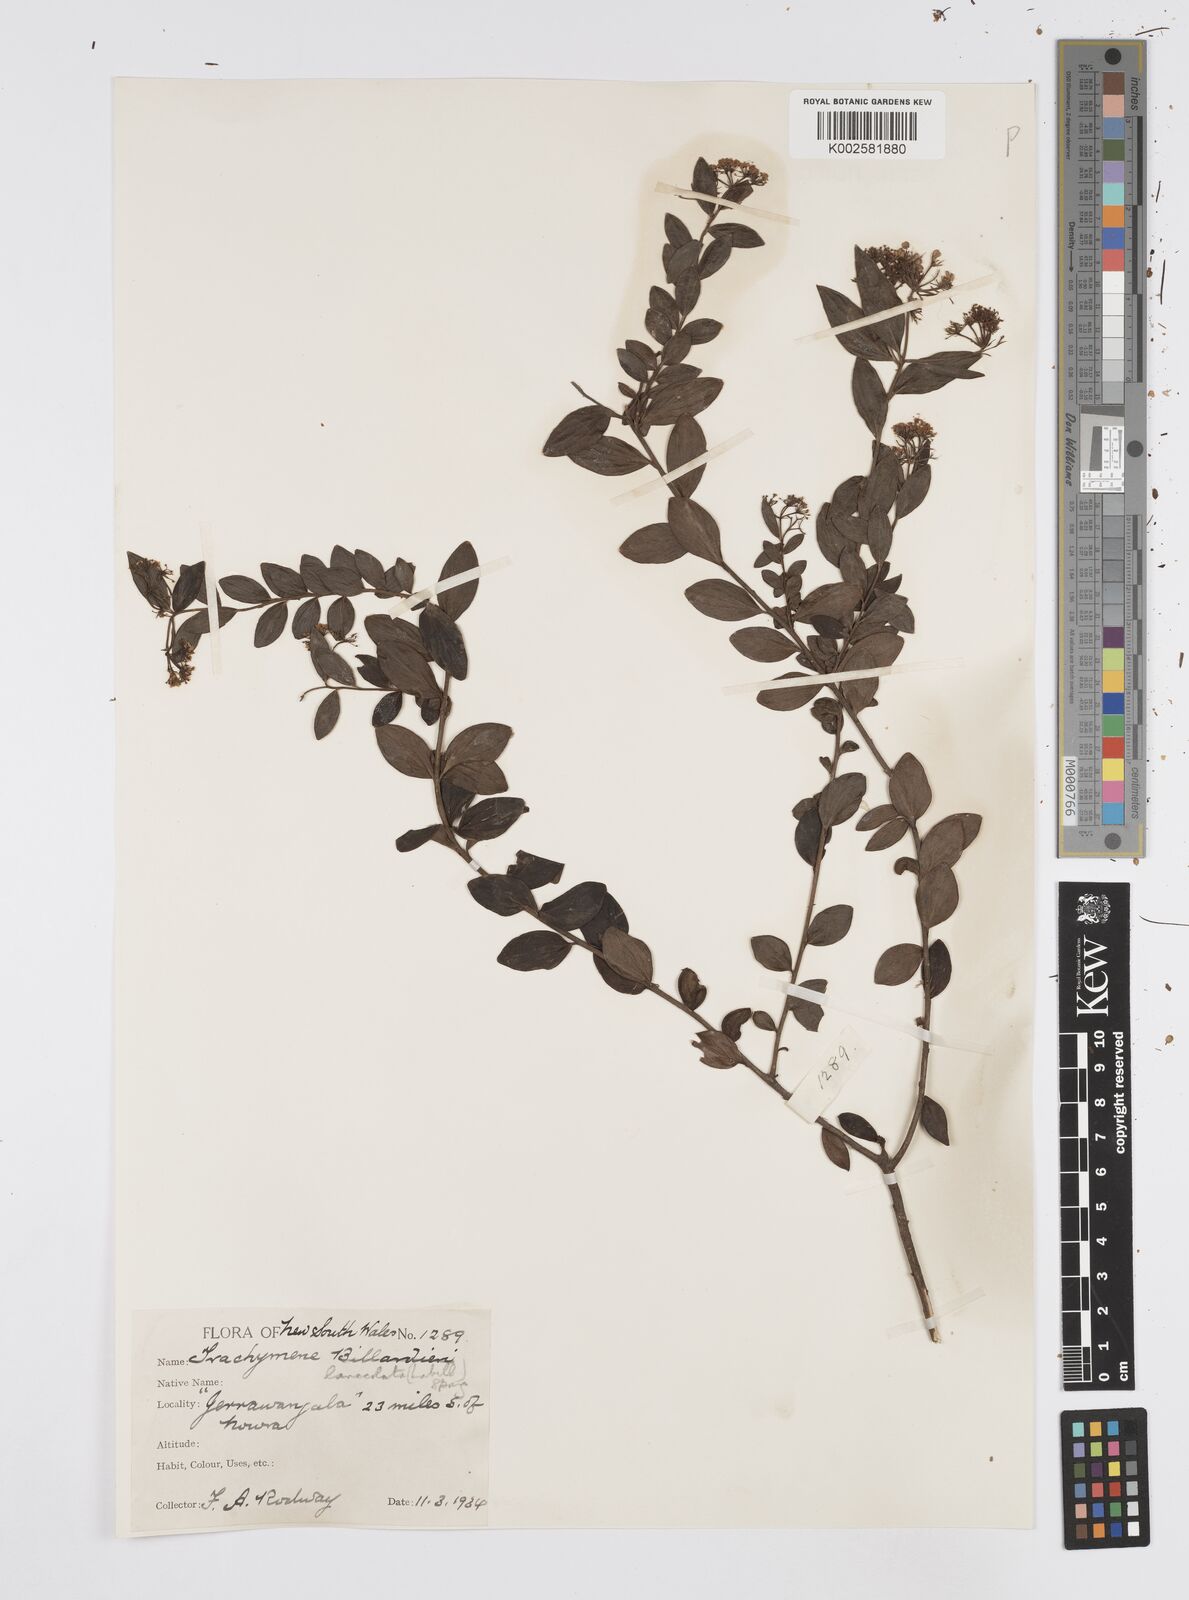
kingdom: Plantae
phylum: Tracheophyta
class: Magnoliopsida
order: Apiales
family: Apiaceae
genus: Platysace
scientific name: Platysace lanceolata
